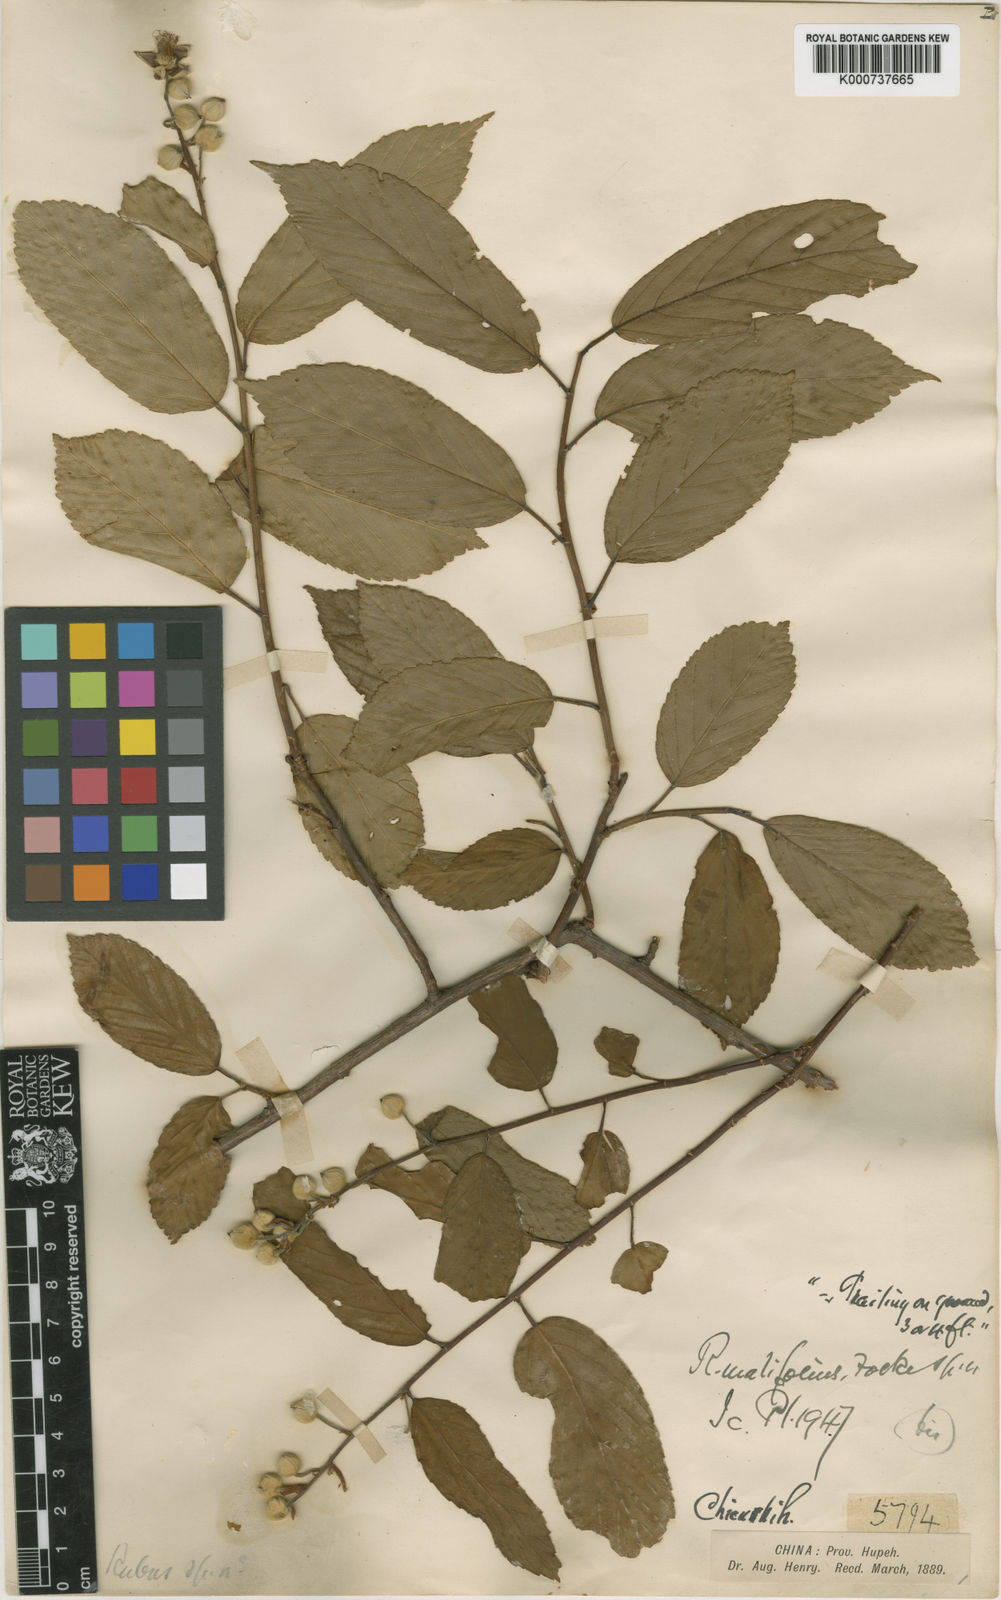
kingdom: Plantae
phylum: Tracheophyta
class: Magnoliopsida
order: Rosales
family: Rosaceae
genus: Rubus
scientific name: Rubus malifolius
